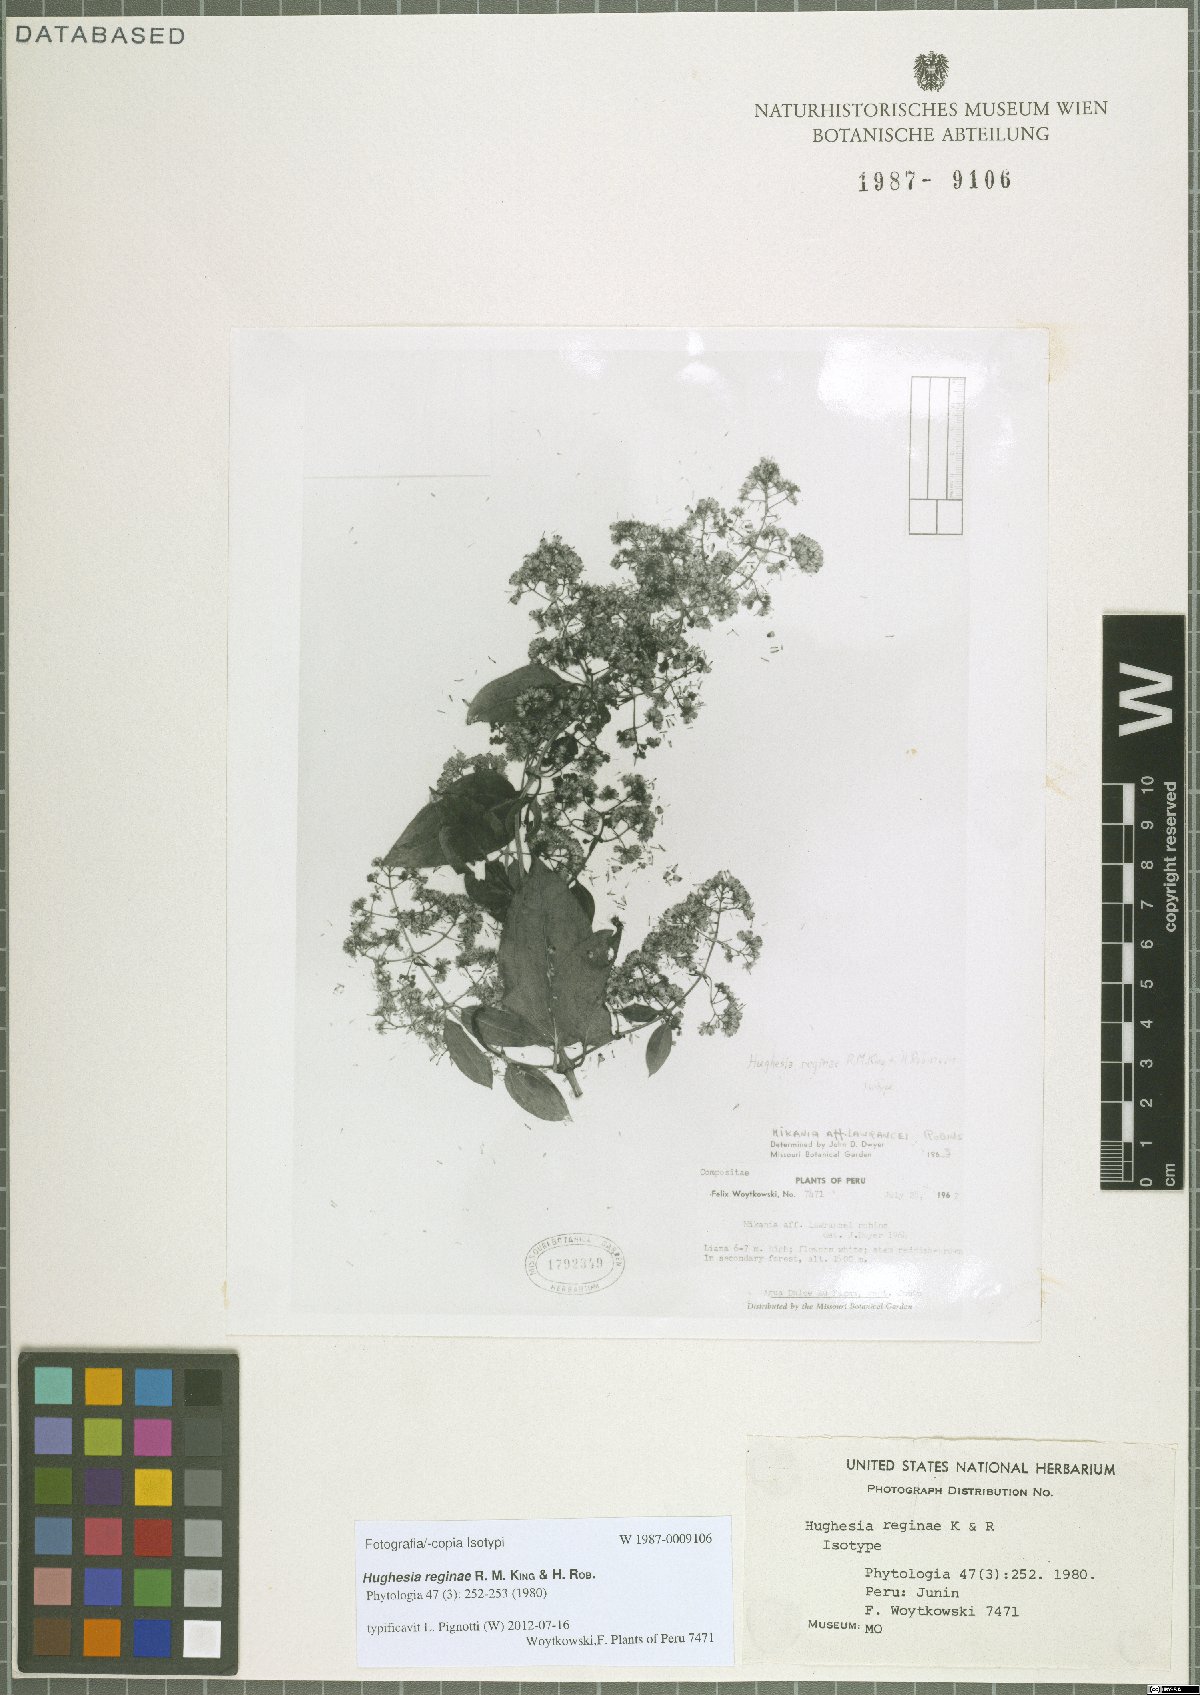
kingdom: Plantae
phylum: Tracheophyta
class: Magnoliopsida
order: Asterales
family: Asteraceae
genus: Hughesia
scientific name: Hughesia reginae
